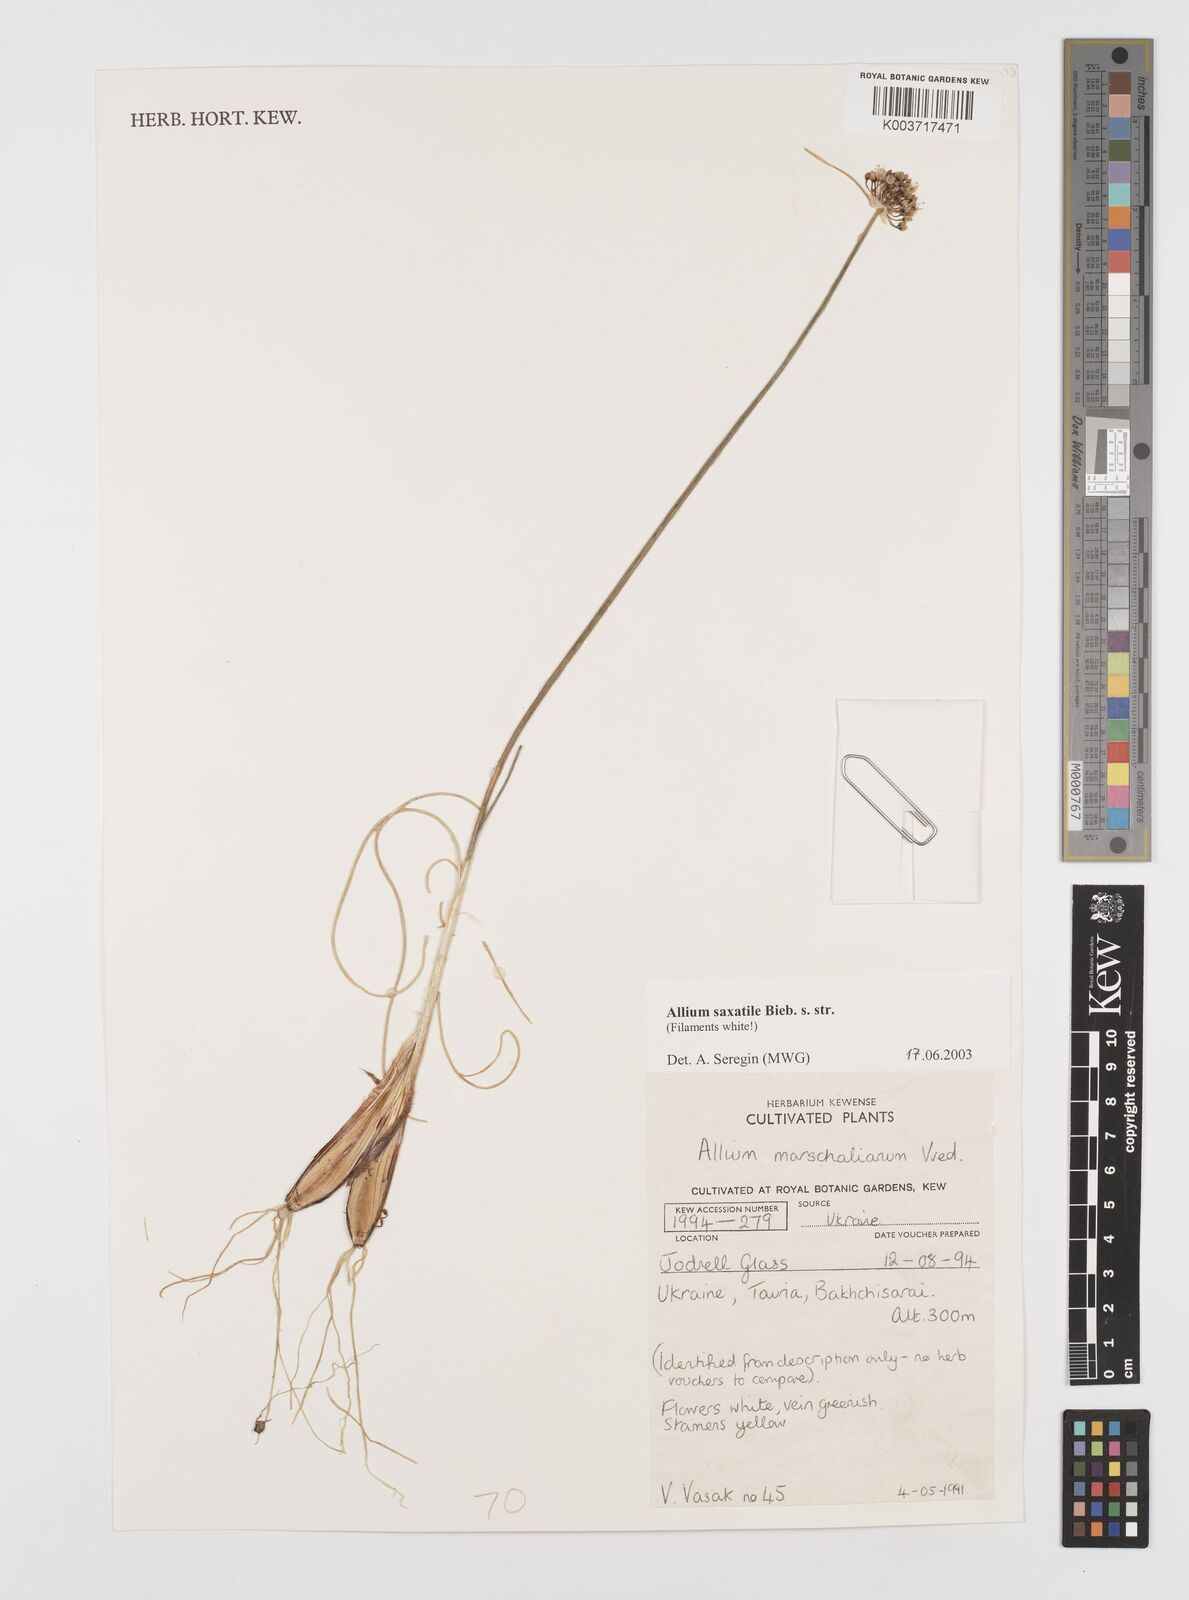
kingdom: Plantae
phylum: Tracheophyta
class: Liliopsida
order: Asparagales
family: Amaryllidaceae
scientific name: Amaryllidaceae
